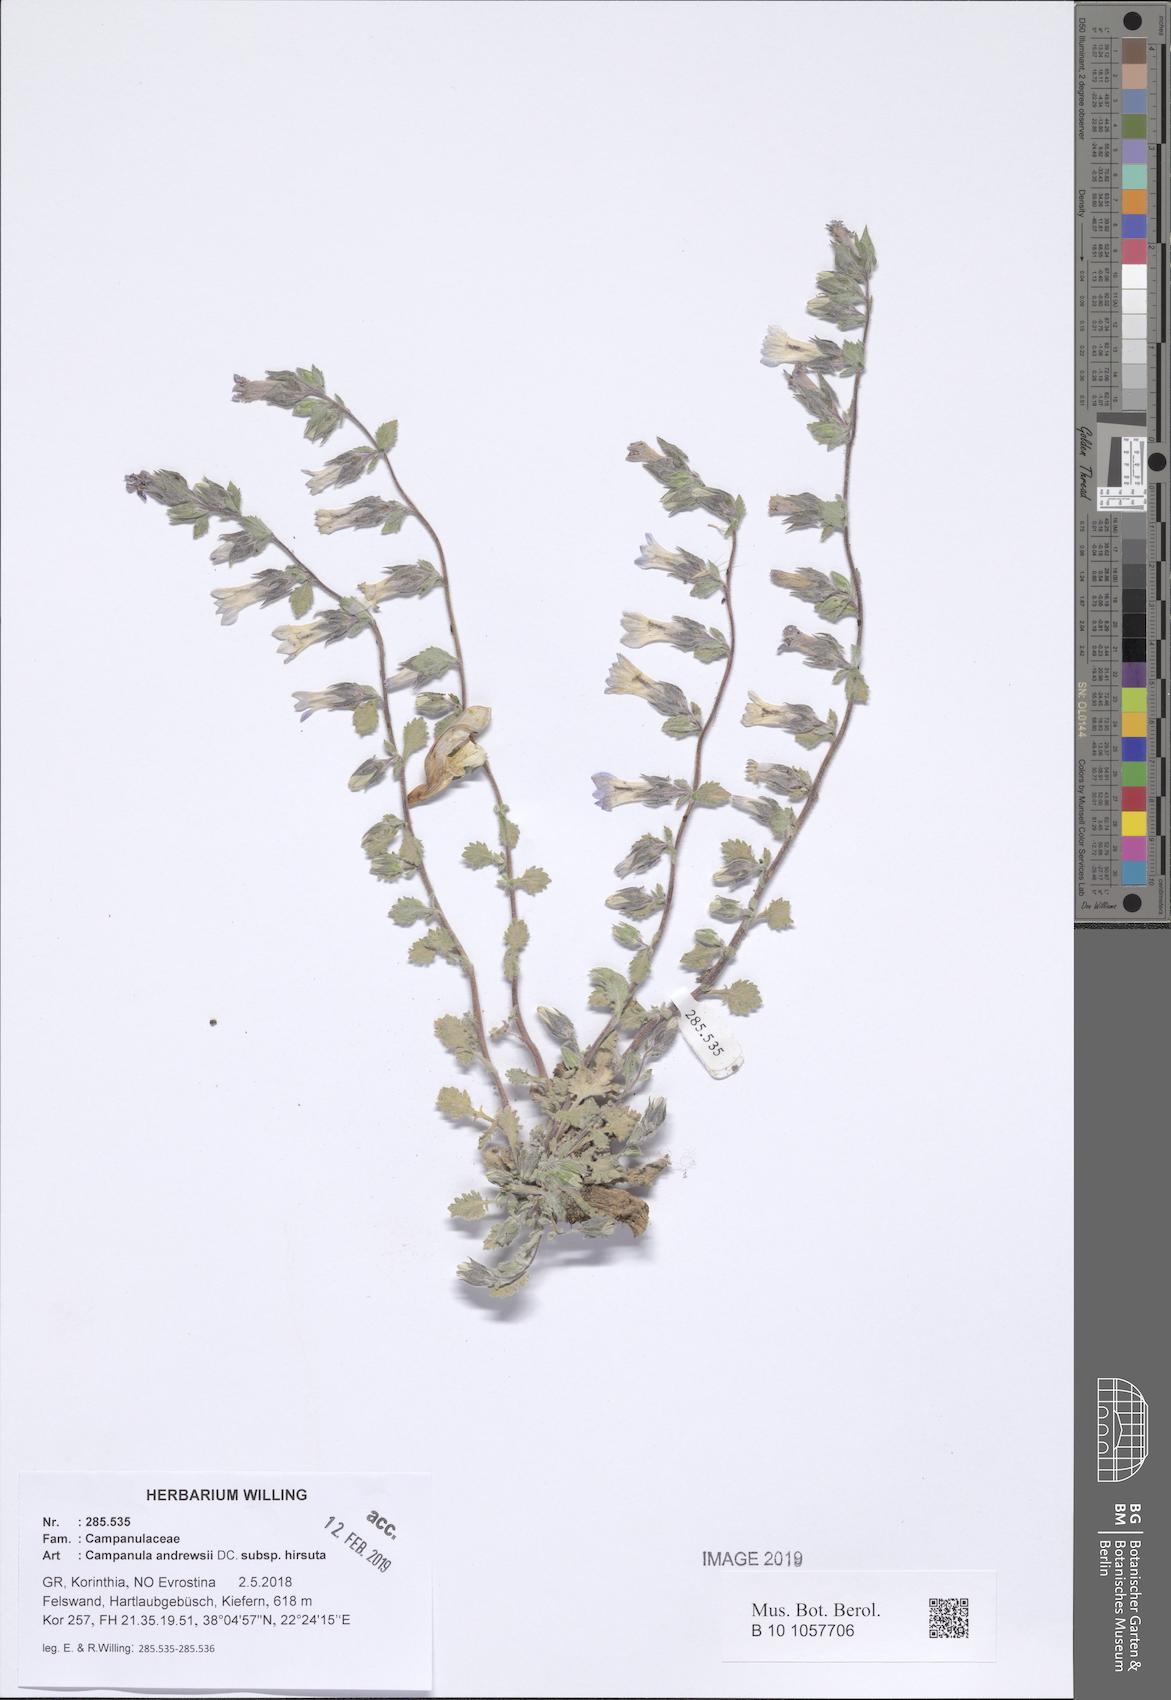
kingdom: Plantae
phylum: Tracheophyta
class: Magnoliopsida
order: Asterales
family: Campanulaceae
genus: Campanula
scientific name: Campanula andrewsii
